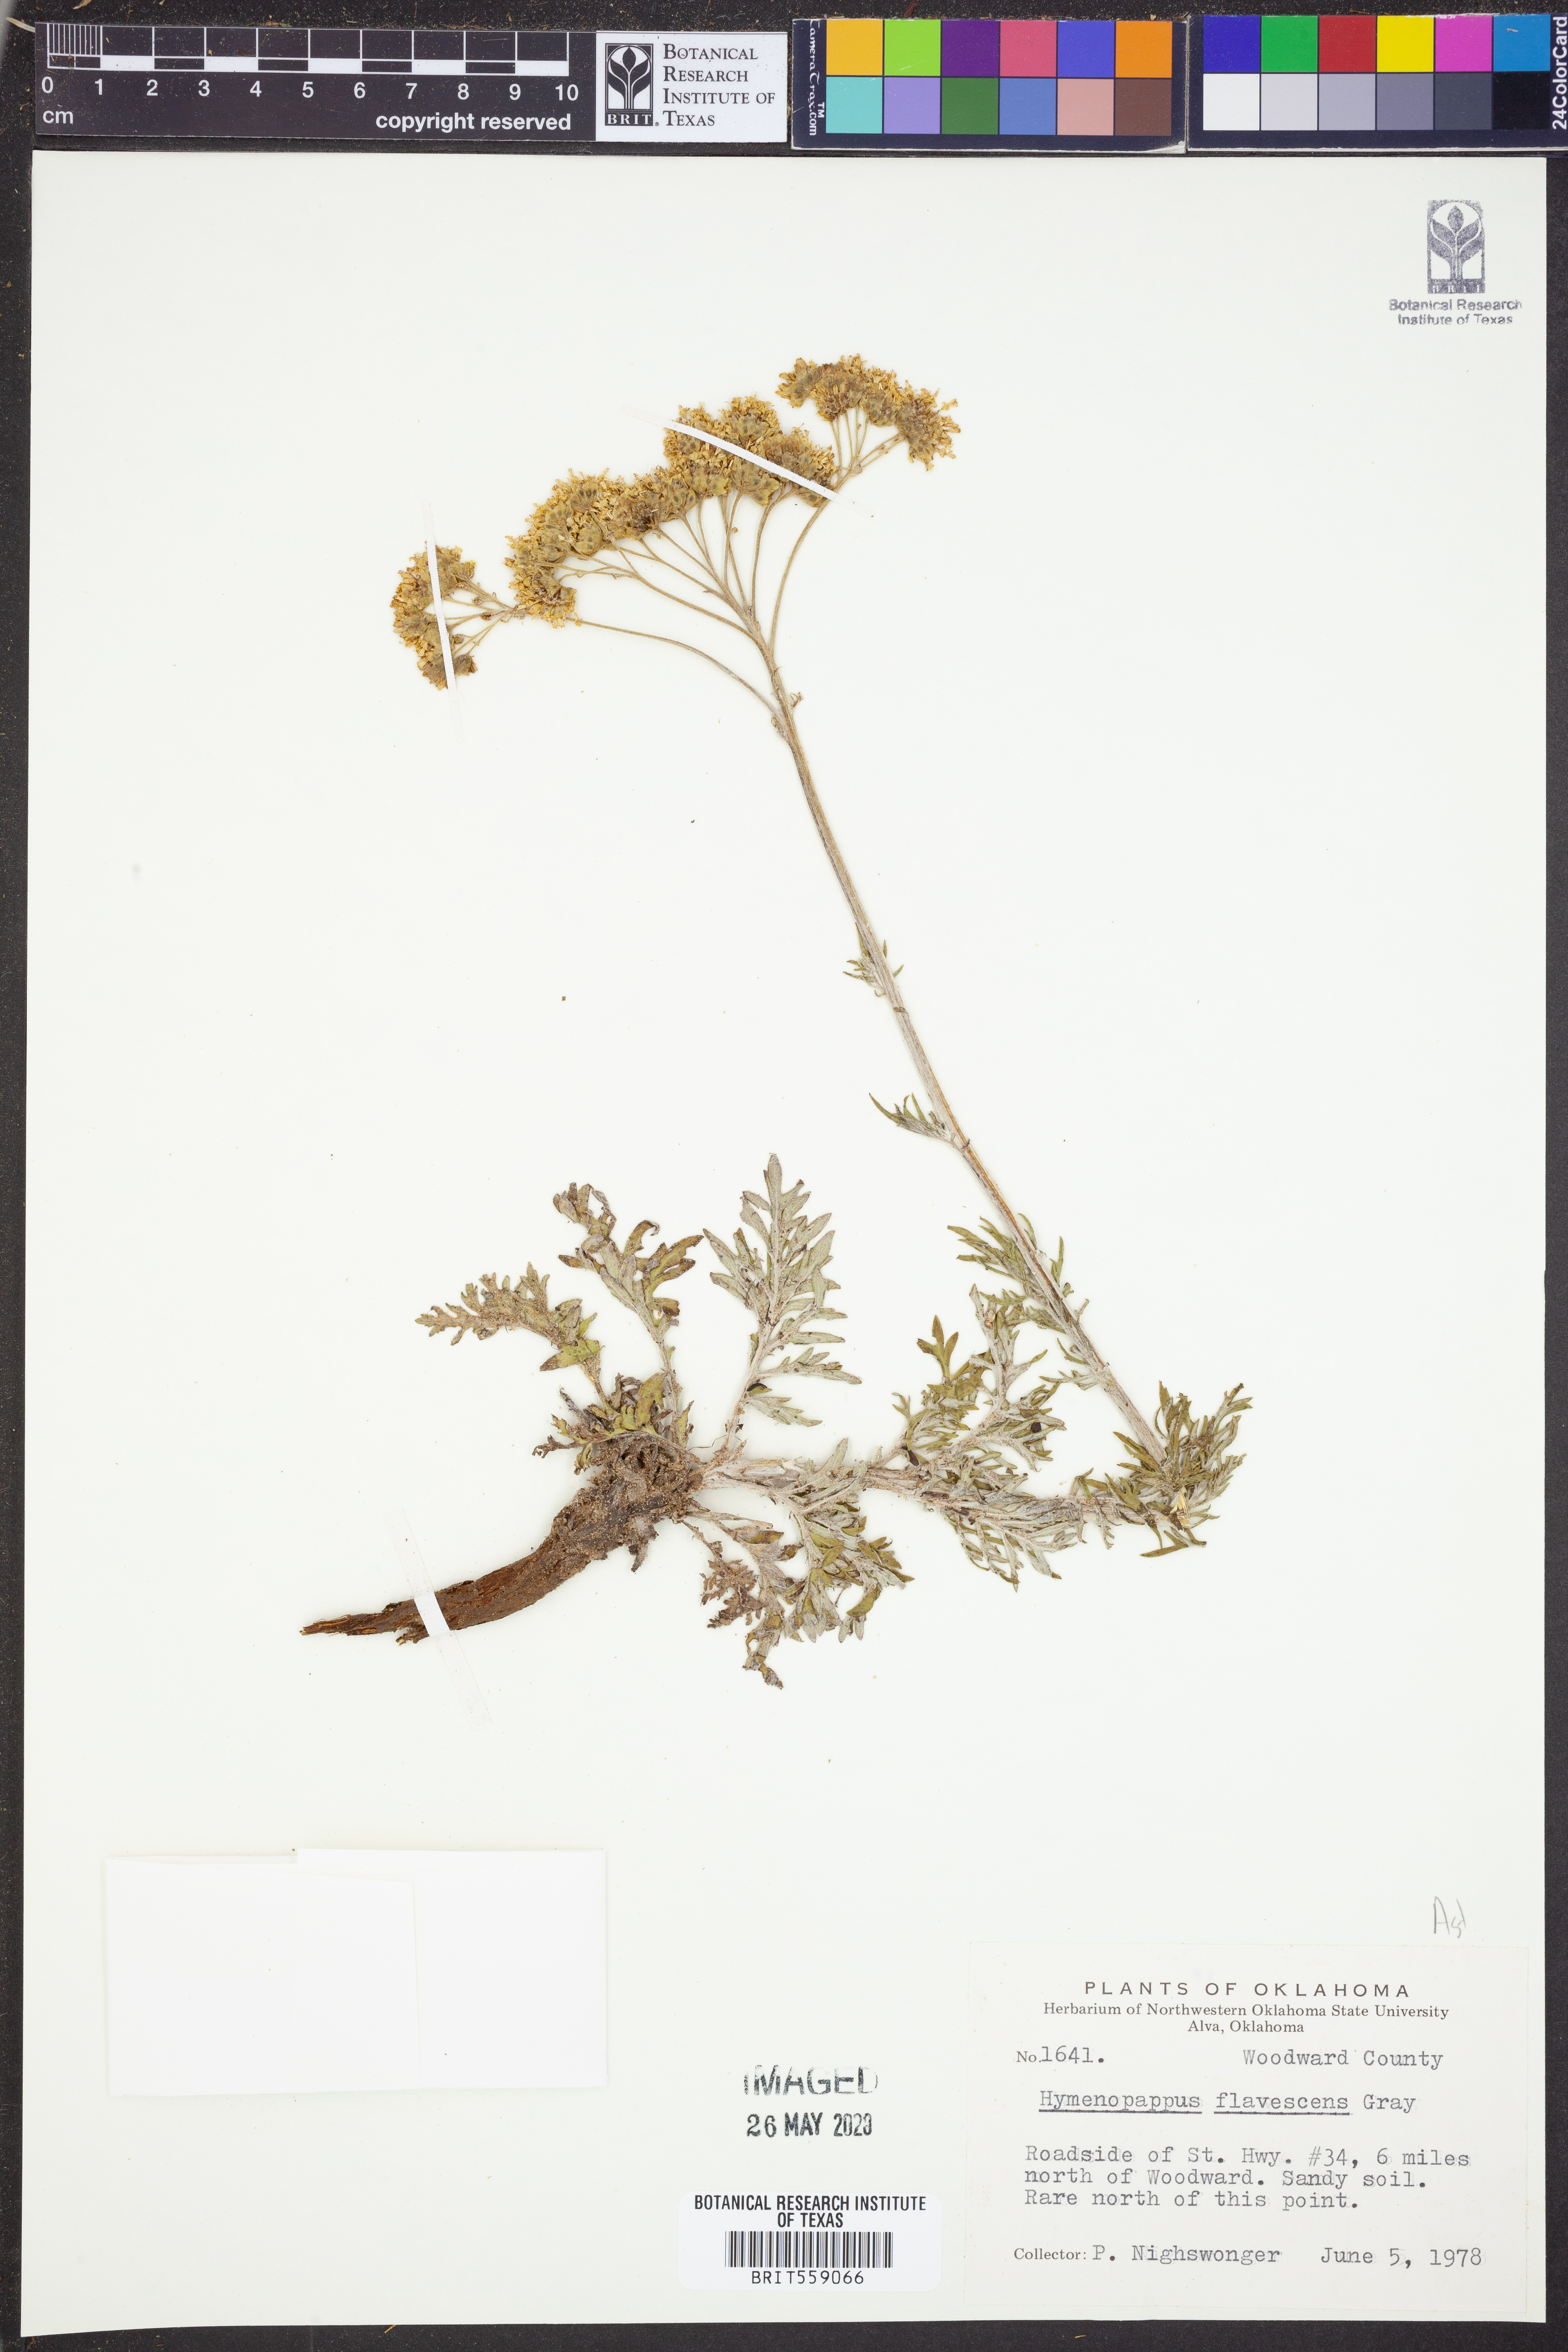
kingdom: Plantae
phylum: Tracheophyta
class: Magnoliopsida
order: Asterales
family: Asteraceae
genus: Hymenopappus
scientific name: Hymenopappus flavescens
